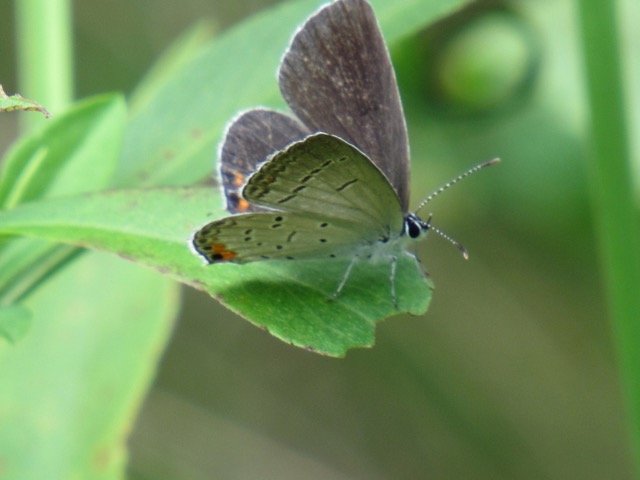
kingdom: Animalia
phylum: Arthropoda
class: Insecta
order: Lepidoptera
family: Lycaenidae
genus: Elkalyce
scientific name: Elkalyce comyntas
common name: Eastern Tailed-Blue
